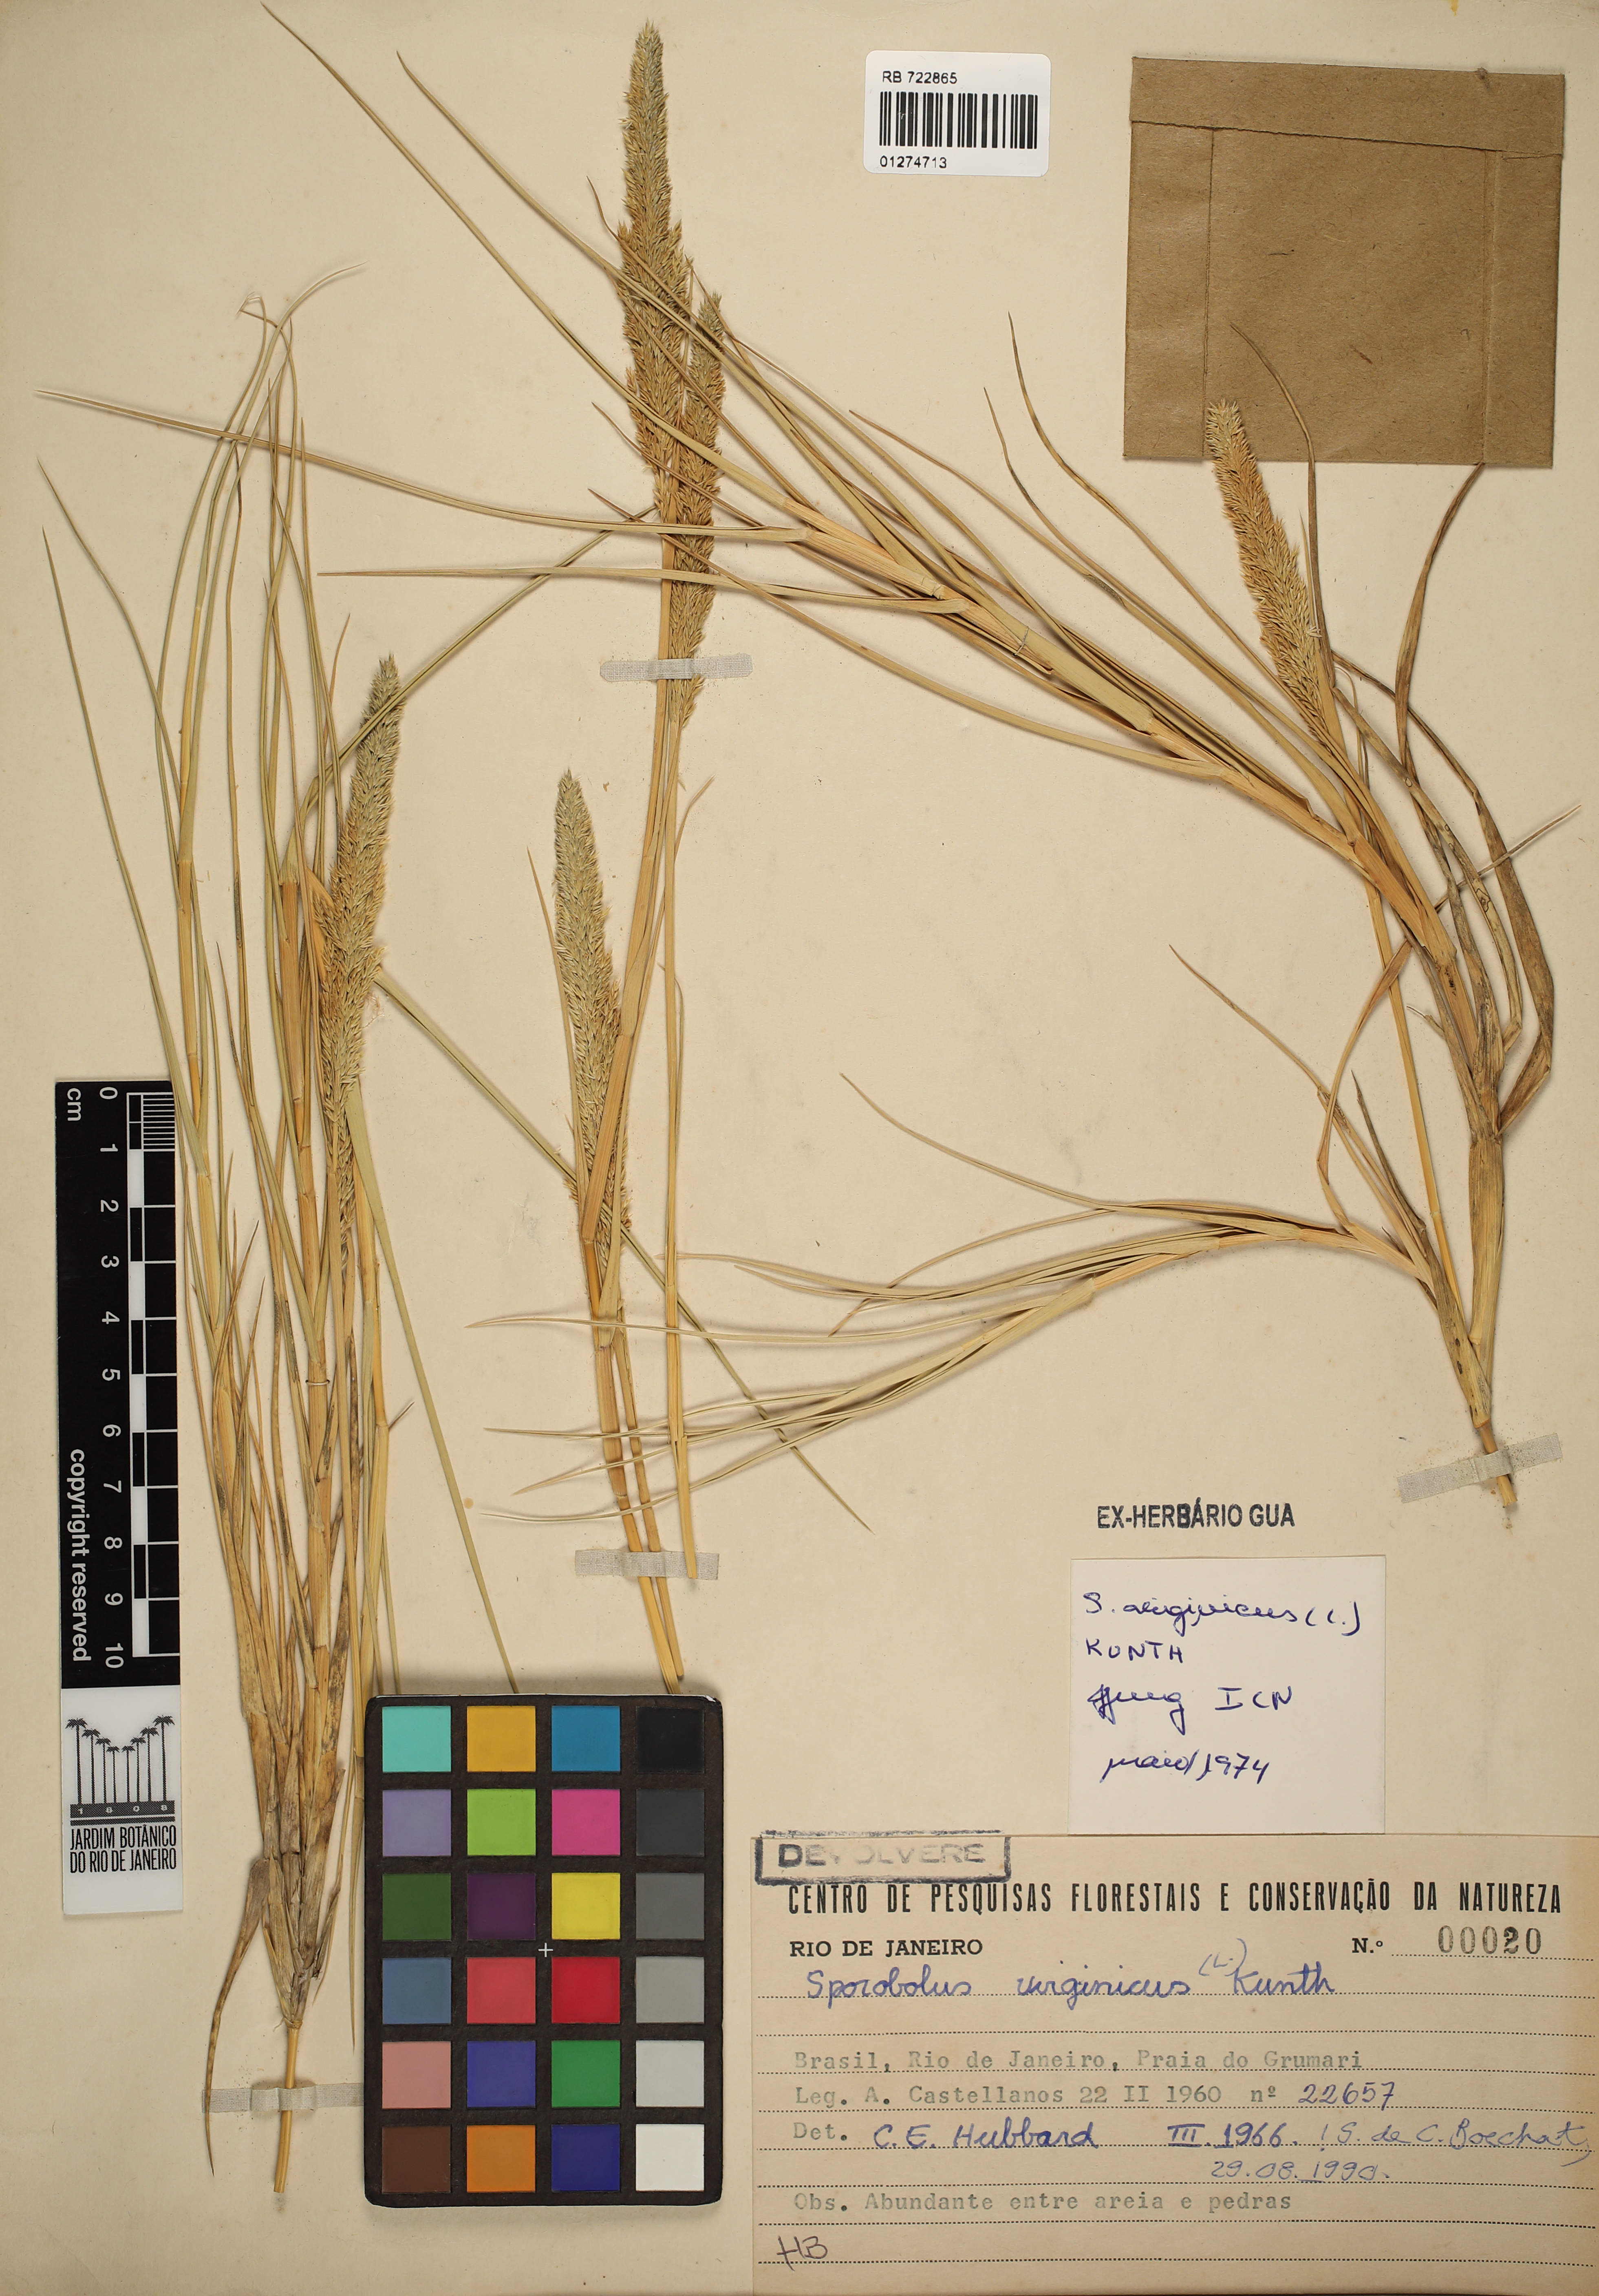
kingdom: Plantae
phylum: Tracheophyta
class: Liliopsida
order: Poales
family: Poaceae
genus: Sporobolus
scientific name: Sporobolus virginicus
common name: Beach dropseed
